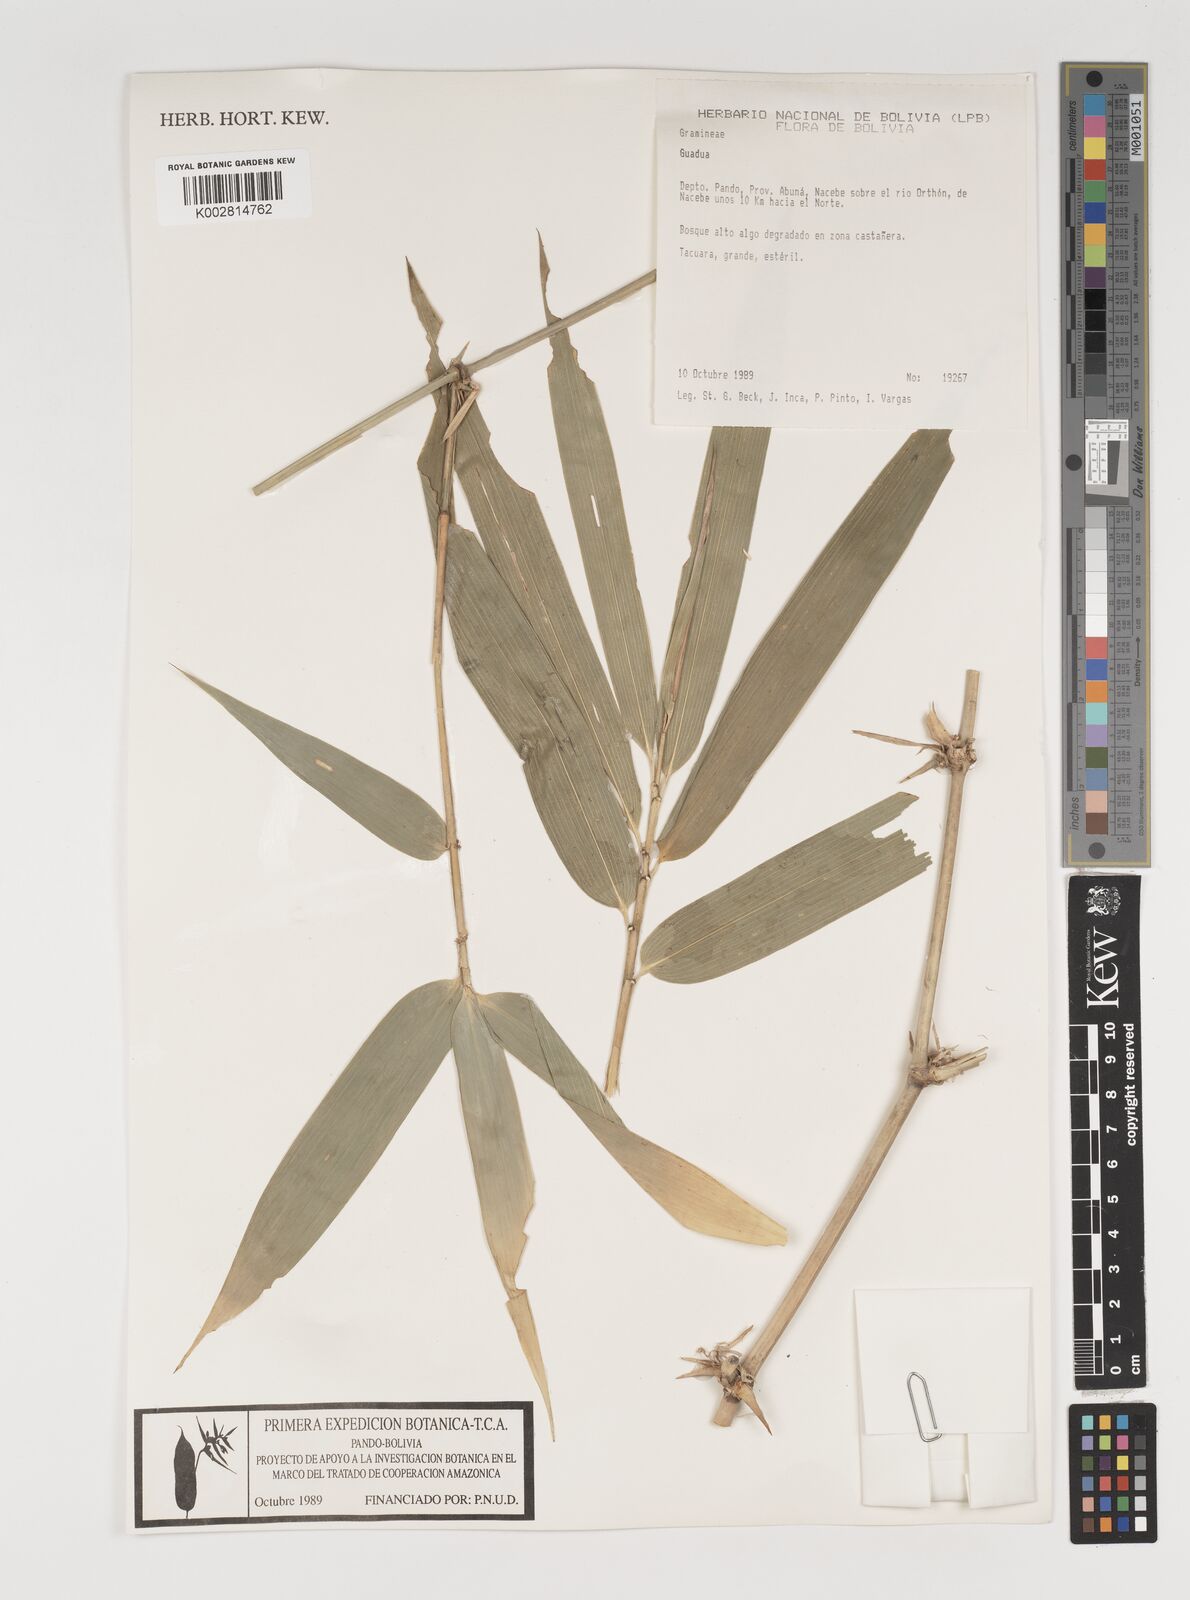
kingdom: Plantae
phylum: Tracheophyta
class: Liliopsida
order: Poales
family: Poaceae
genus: Guadua
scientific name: Guadua
